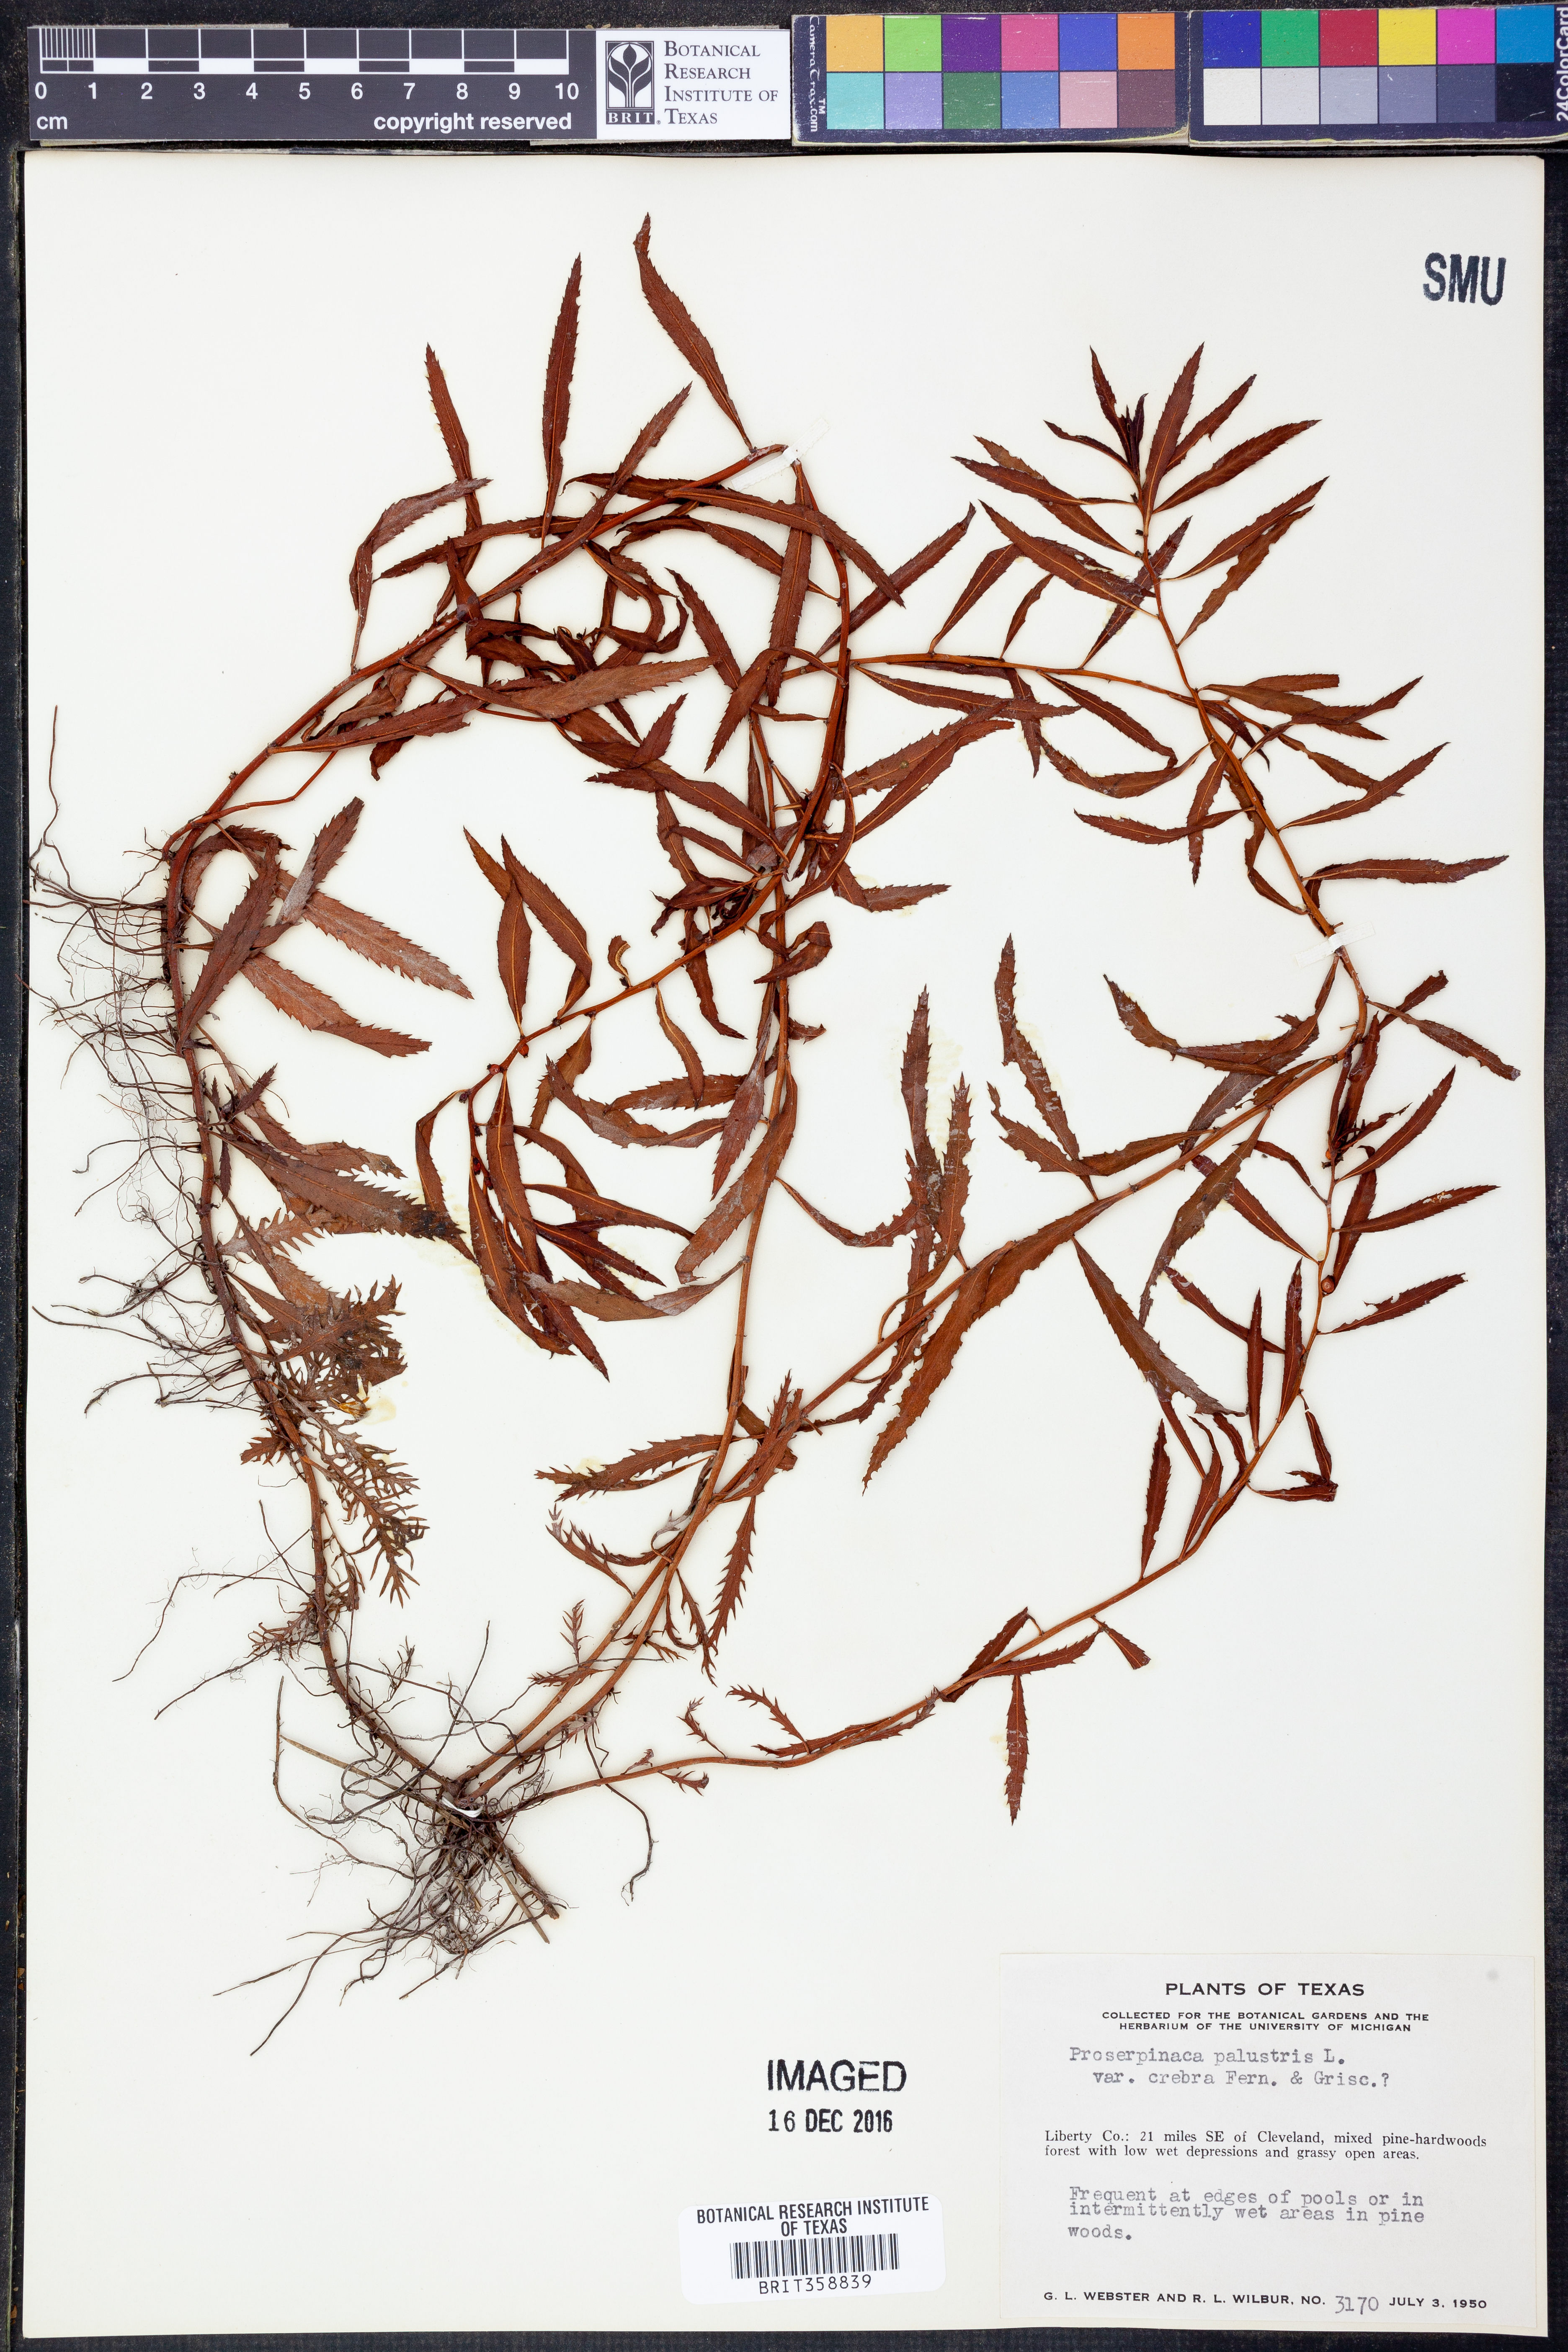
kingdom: Plantae
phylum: Tracheophyta
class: Magnoliopsida
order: Saxifragales
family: Haloragaceae
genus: Proserpinaca
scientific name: Proserpinaca palustris
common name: Marsh mermaidweed
